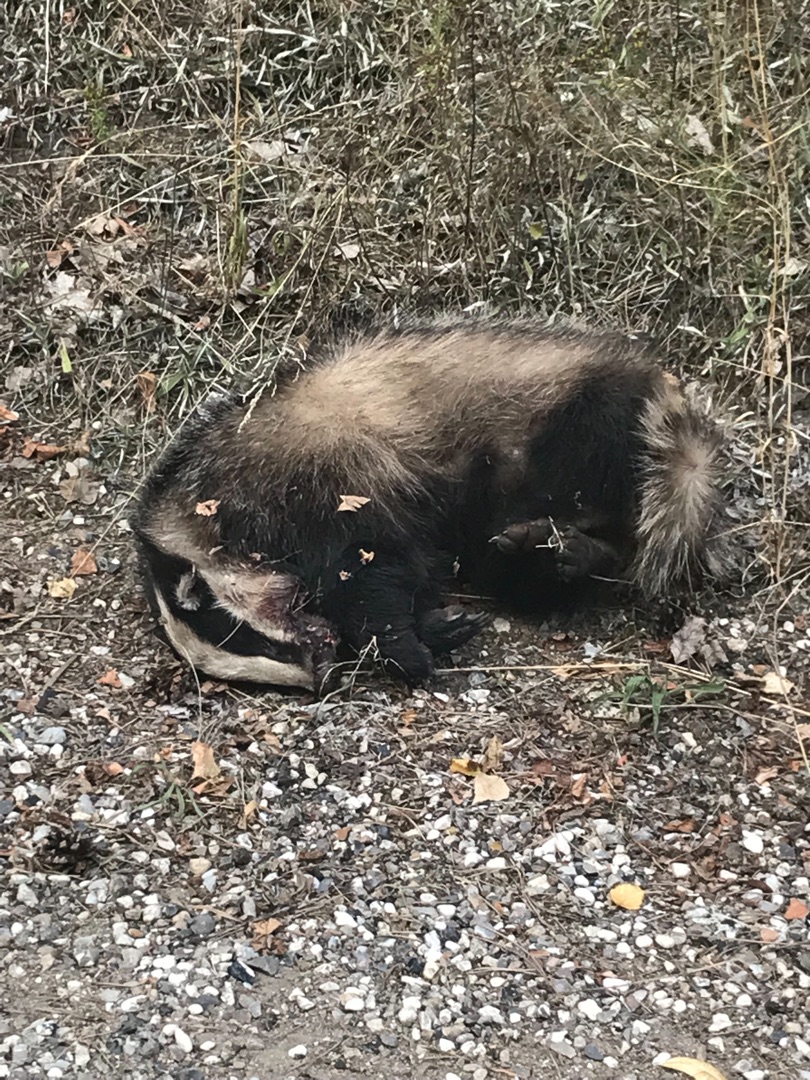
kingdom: Animalia
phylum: Chordata
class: Mammalia
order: Carnivora
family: Mustelidae
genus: Meles
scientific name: Meles meles
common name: Grævling
